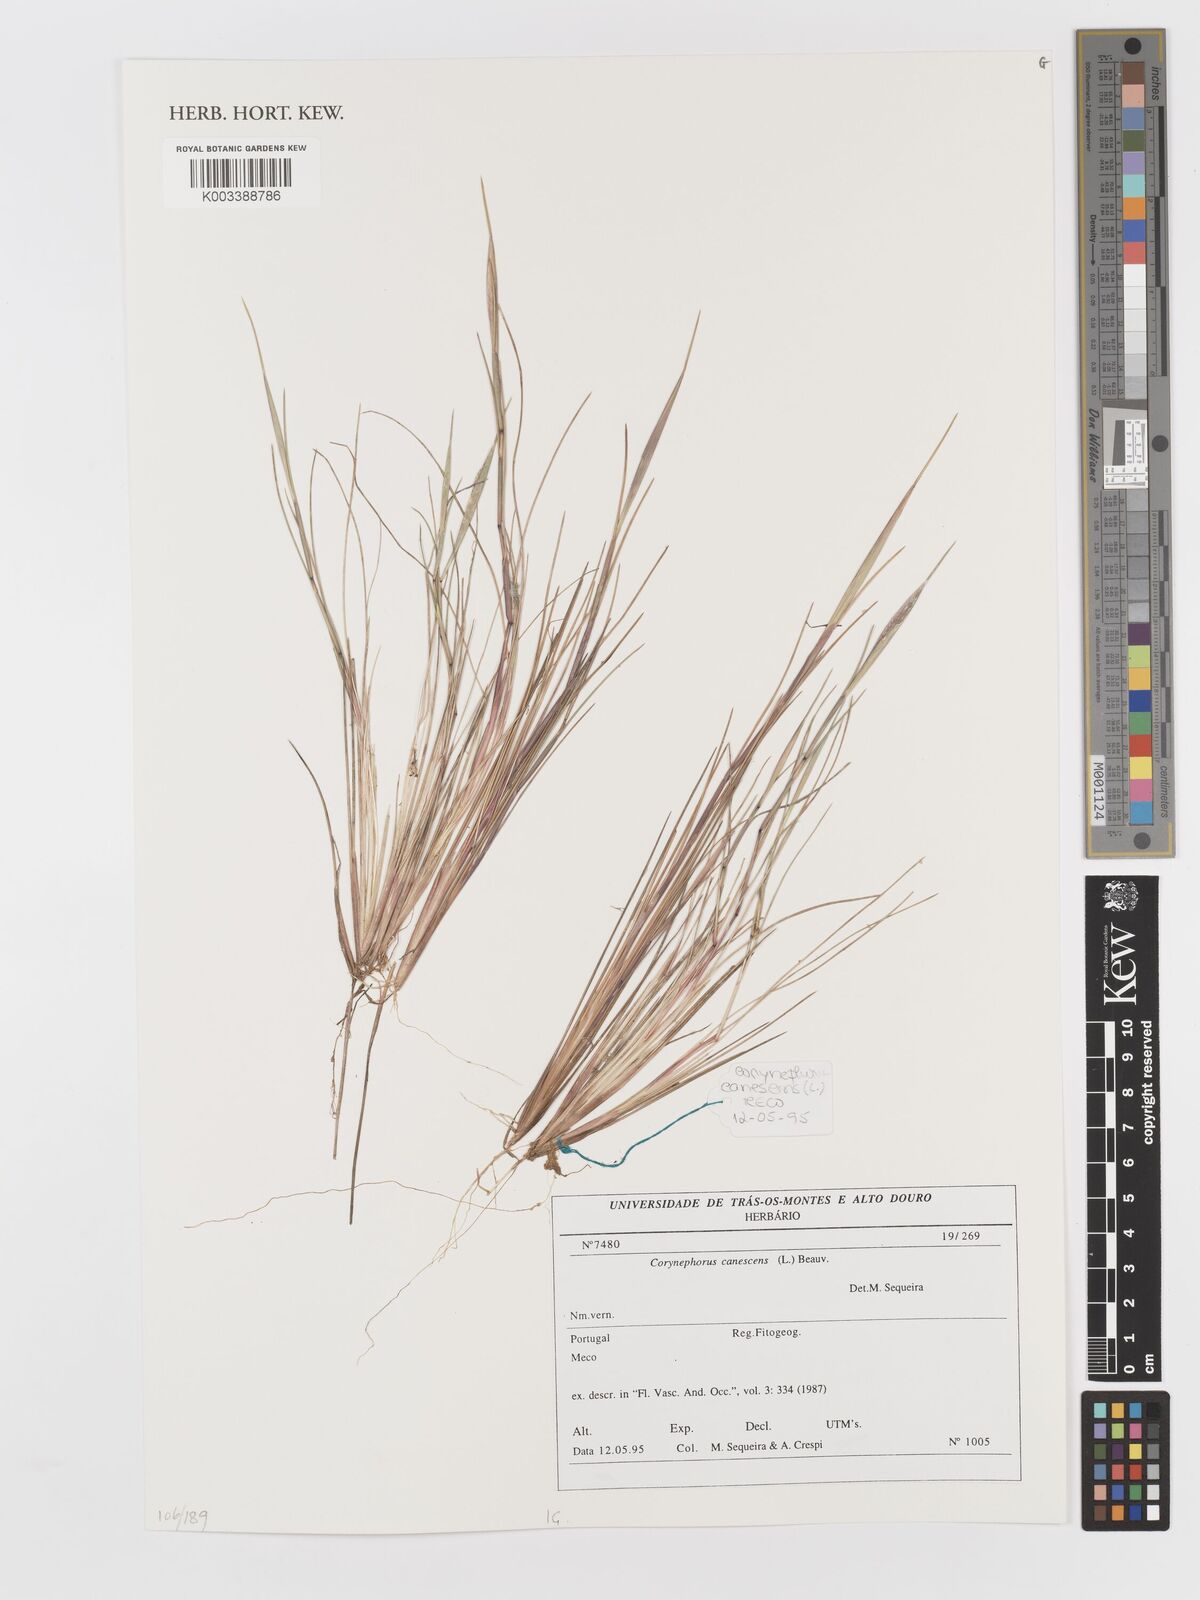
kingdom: Plantae
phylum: Tracheophyta
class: Liliopsida
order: Poales
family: Poaceae
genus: Corynephorus
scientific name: Corynephorus canescens
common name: Grey hair-grass
